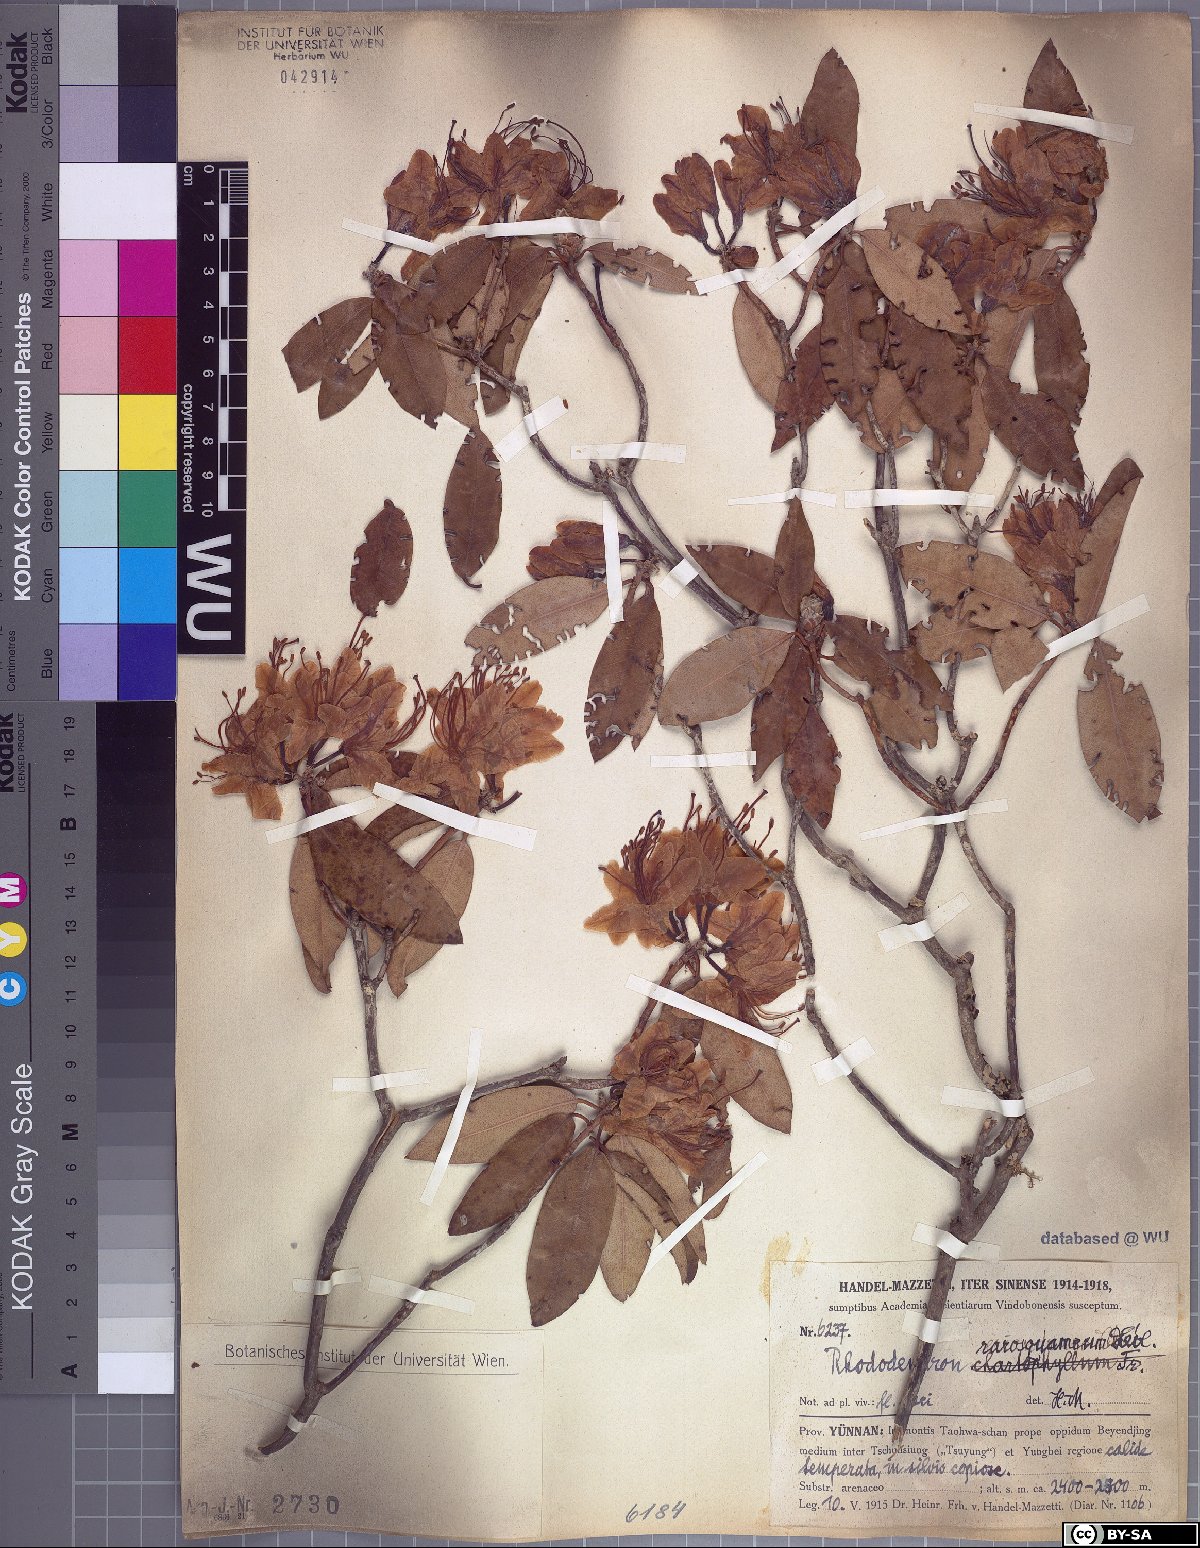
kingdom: Plantae
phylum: Tracheophyta
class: Magnoliopsida
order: Ericales
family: Ericaceae
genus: Rhododendron
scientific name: Rhododendron rigidum
